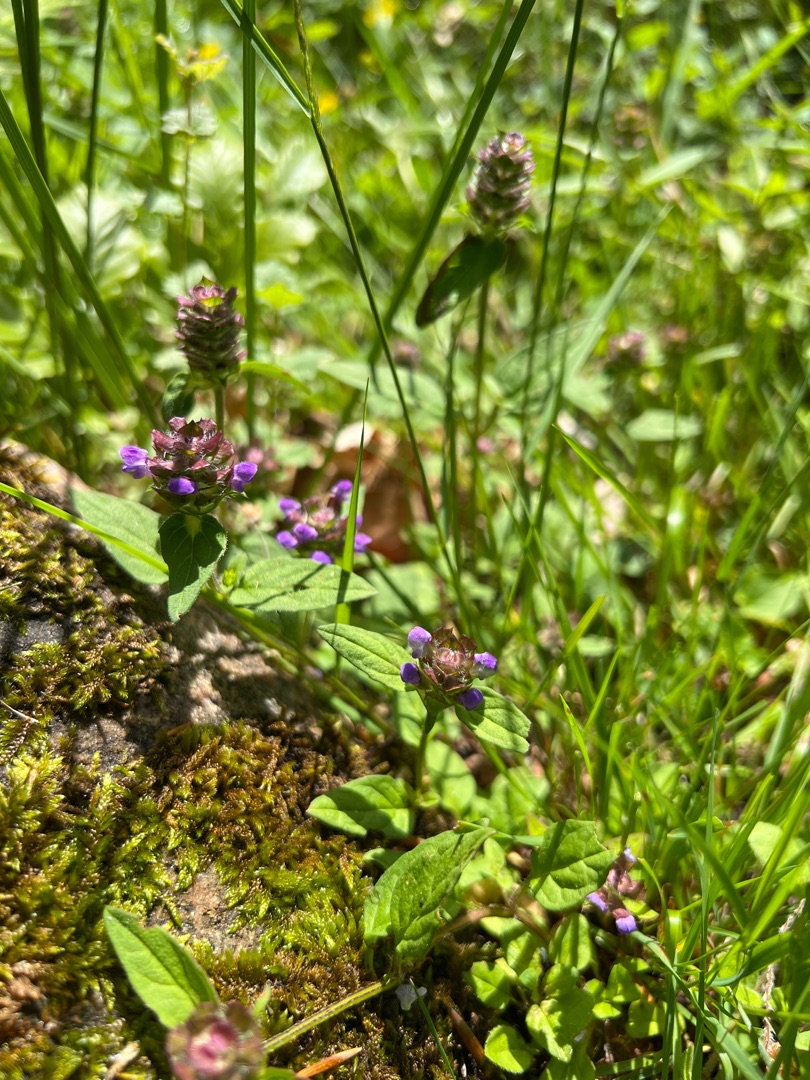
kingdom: Plantae
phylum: Tracheophyta
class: Magnoliopsida
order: Lamiales
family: Lamiaceae
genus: Prunella
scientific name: Prunella vulgaris
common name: Almindelig brunelle
